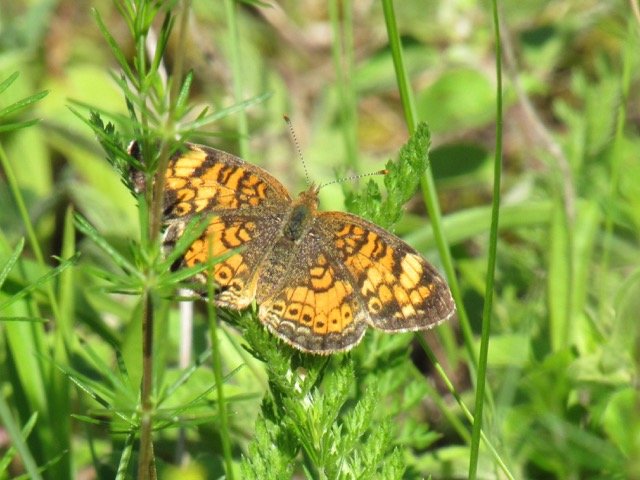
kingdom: Animalia
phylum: Arthropoda
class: Insecta
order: Lepidoptera
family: Nymphalidae
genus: Phyciodes
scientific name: Phyciodes tharos
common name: Pearl Crescent
